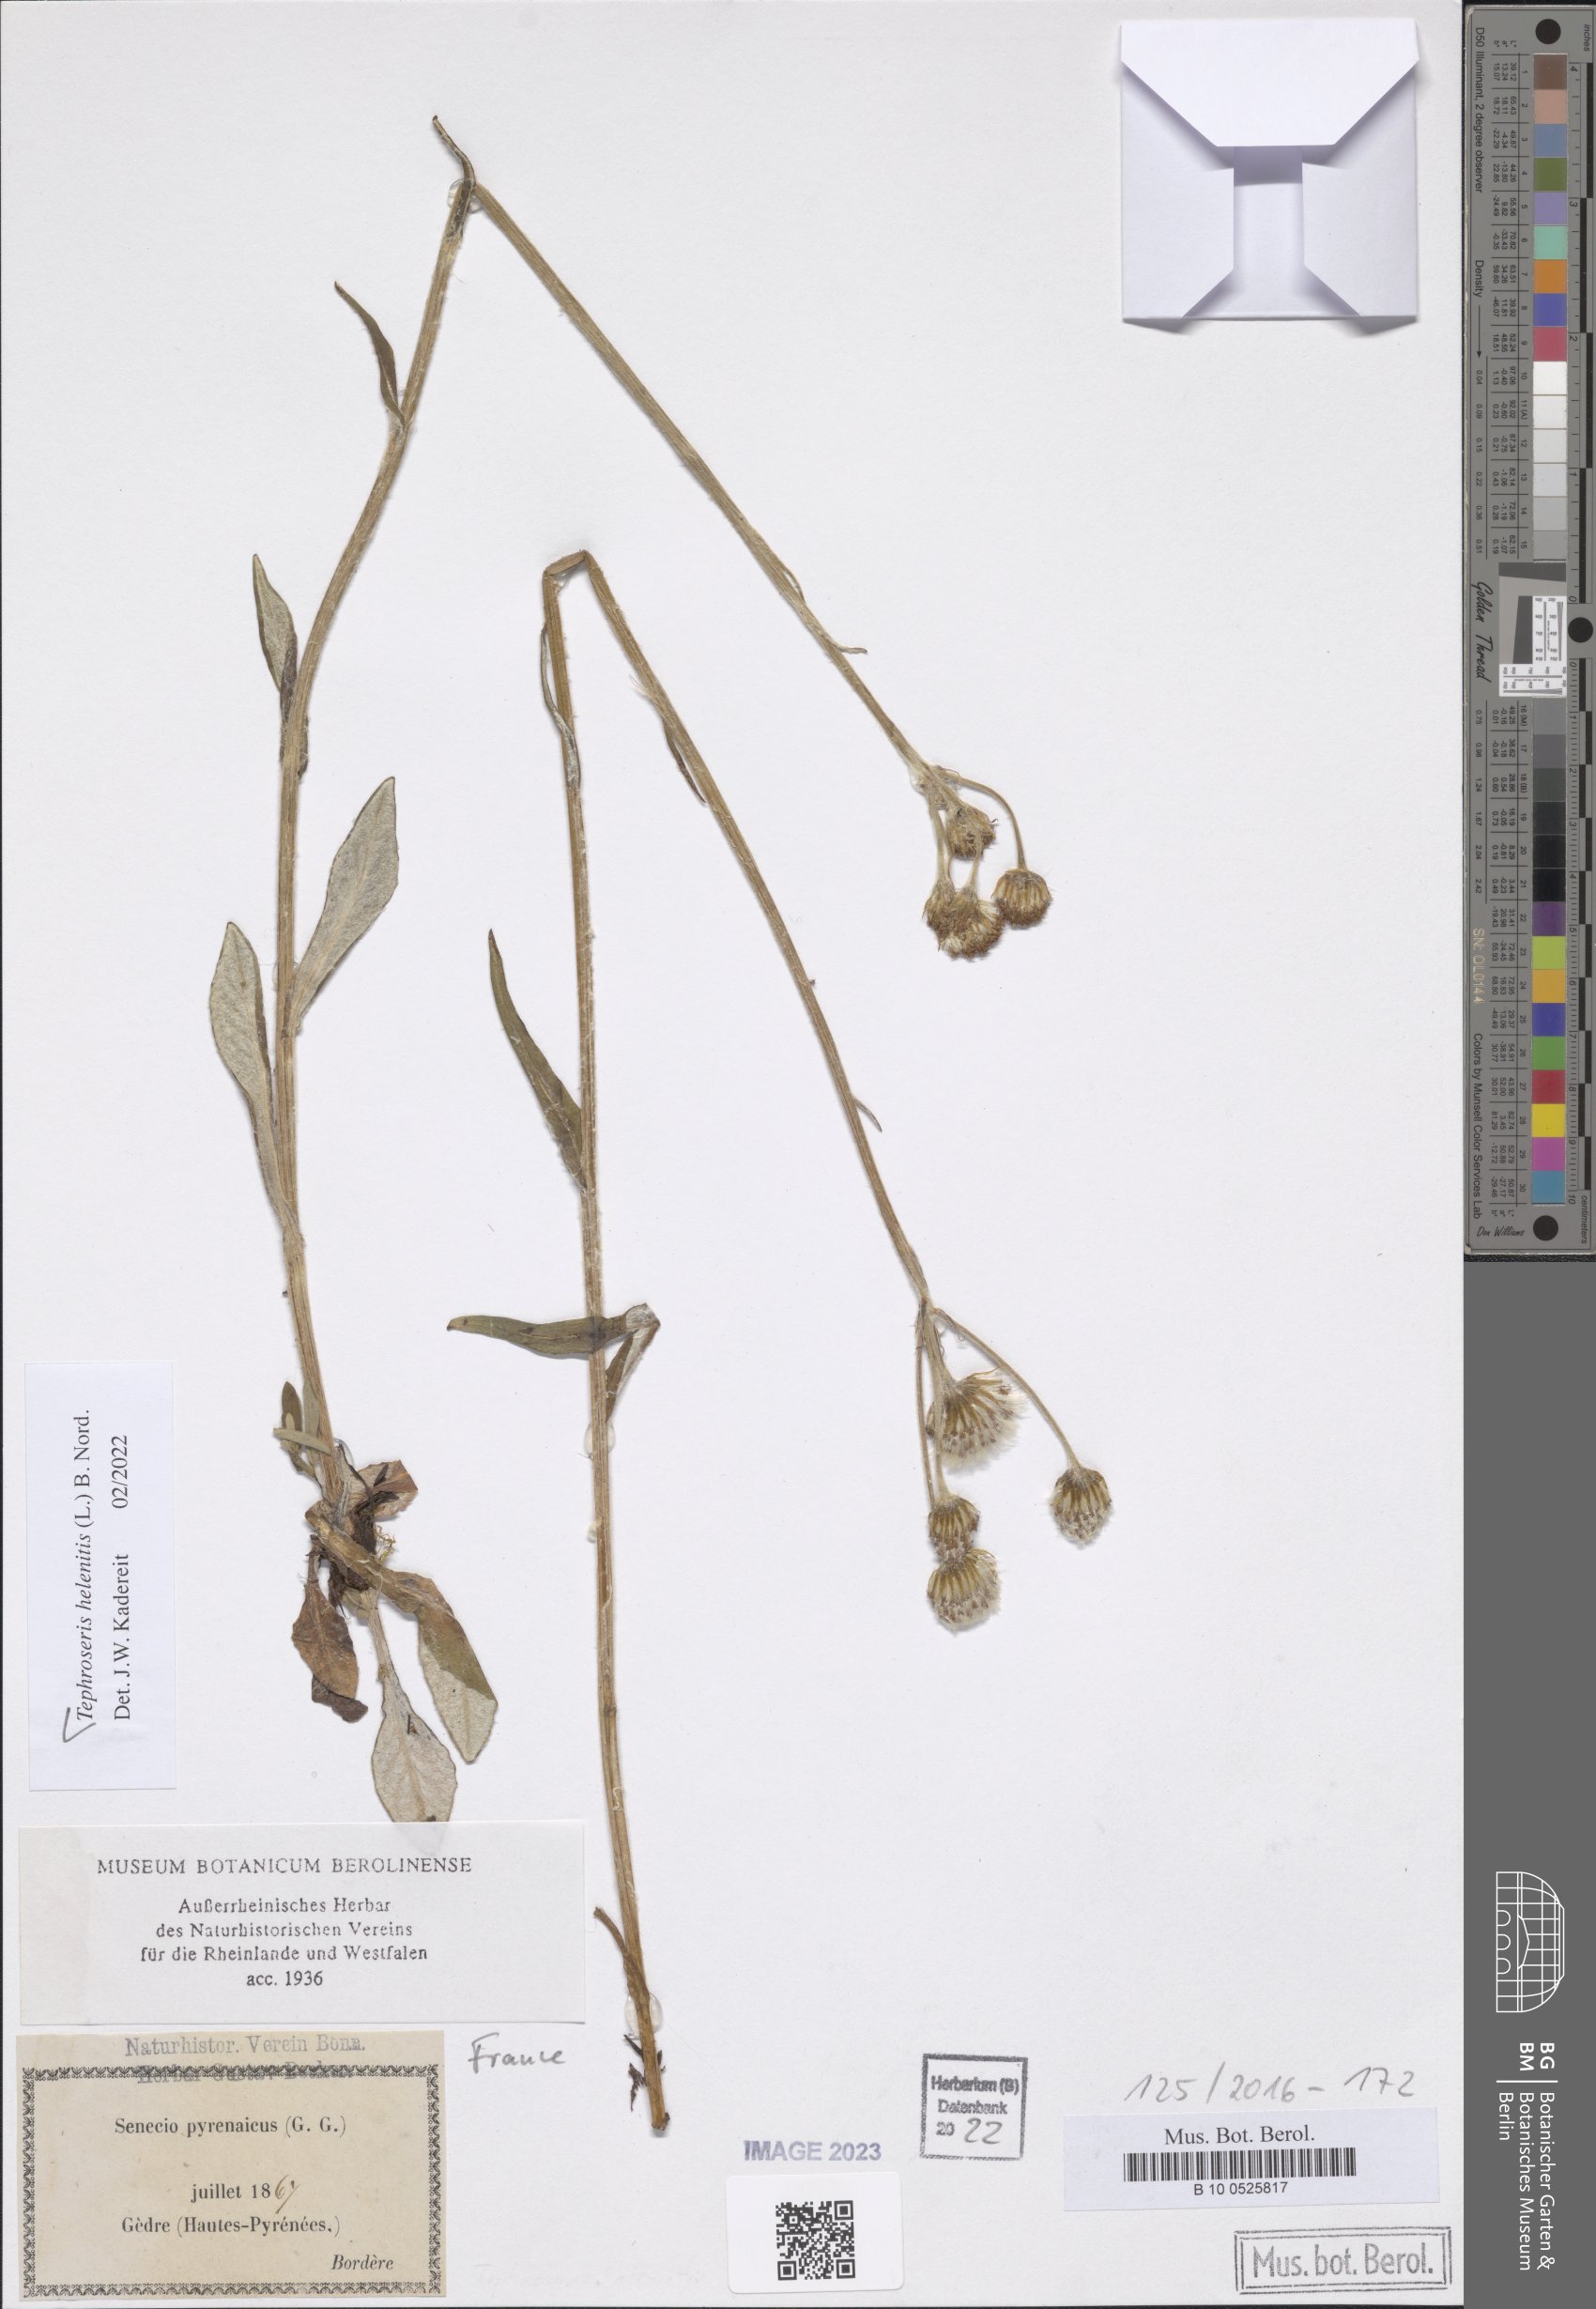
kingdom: Plantae
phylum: Tracheophyta
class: Magnoliopsida
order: Asterales
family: Asteraceae
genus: Tephroseris
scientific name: Tephroseris helenitis
